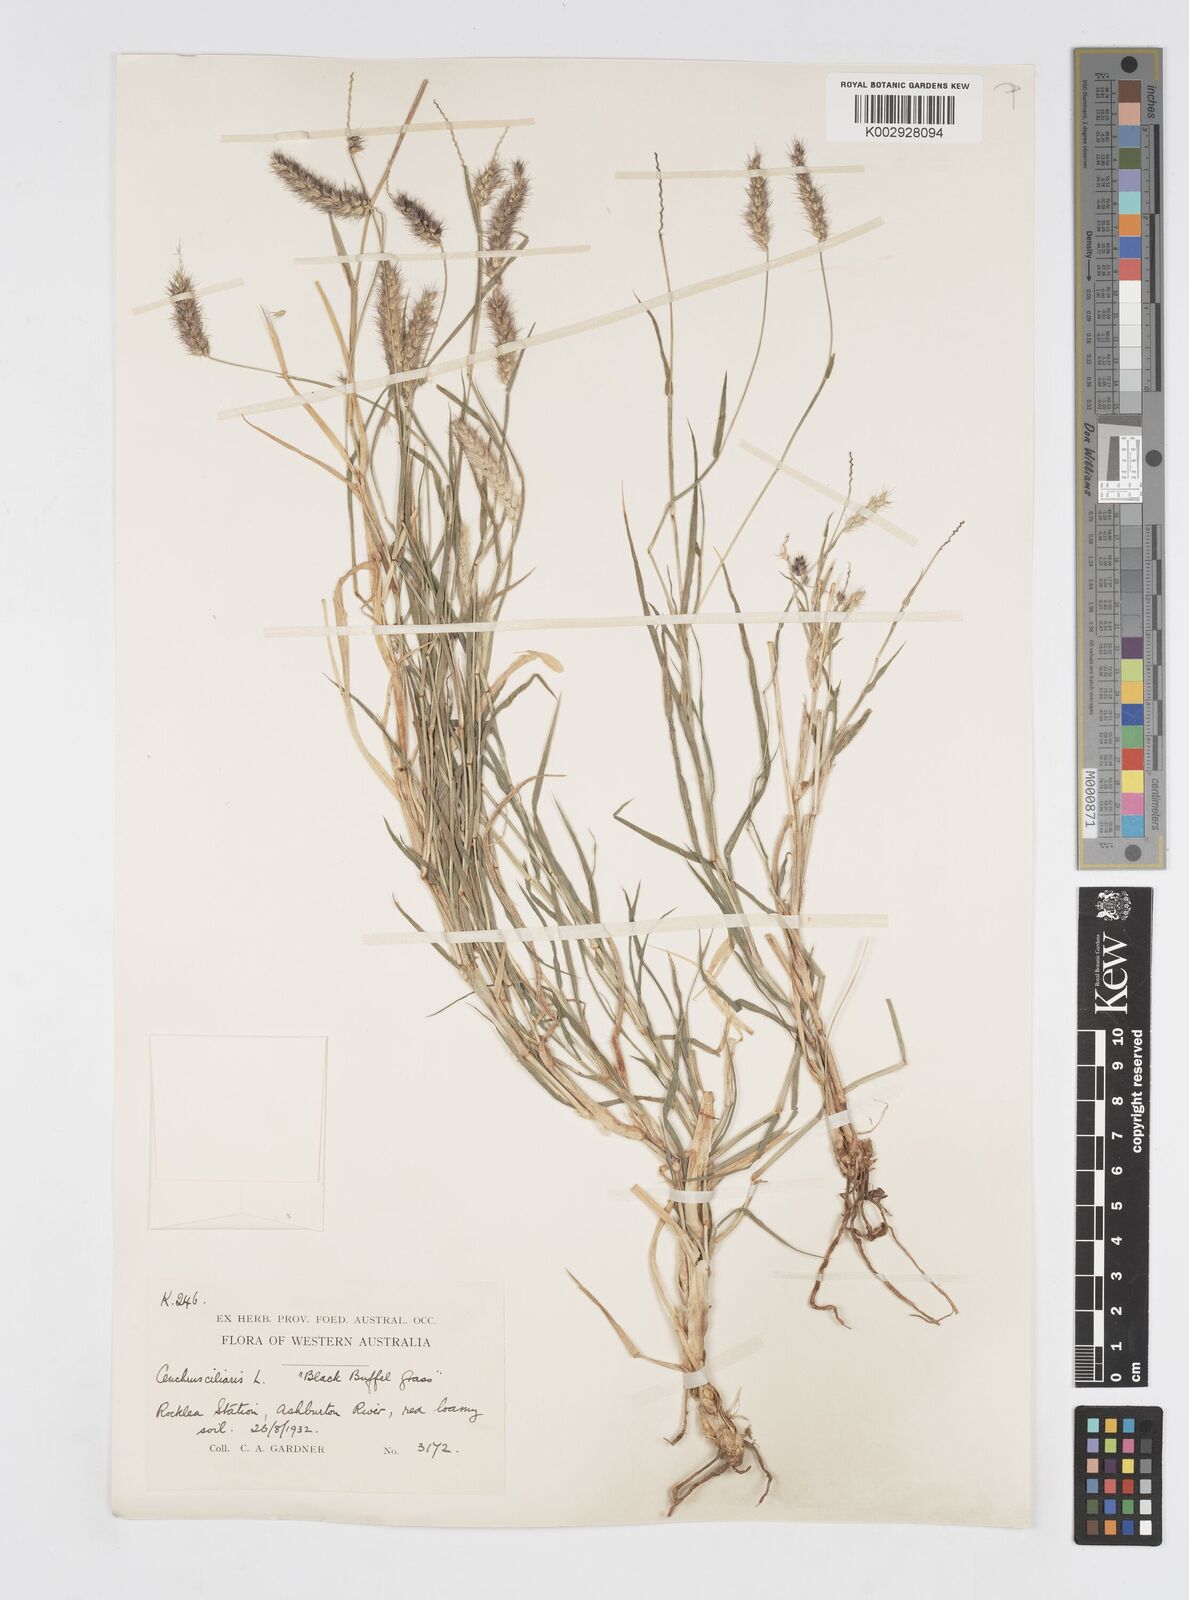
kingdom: Plantae
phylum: Tracheophyta
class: Liliopsida
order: Poales
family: Poaceae
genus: Cenchrus
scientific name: Cenchrus ciliaris
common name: Buffelgrass
